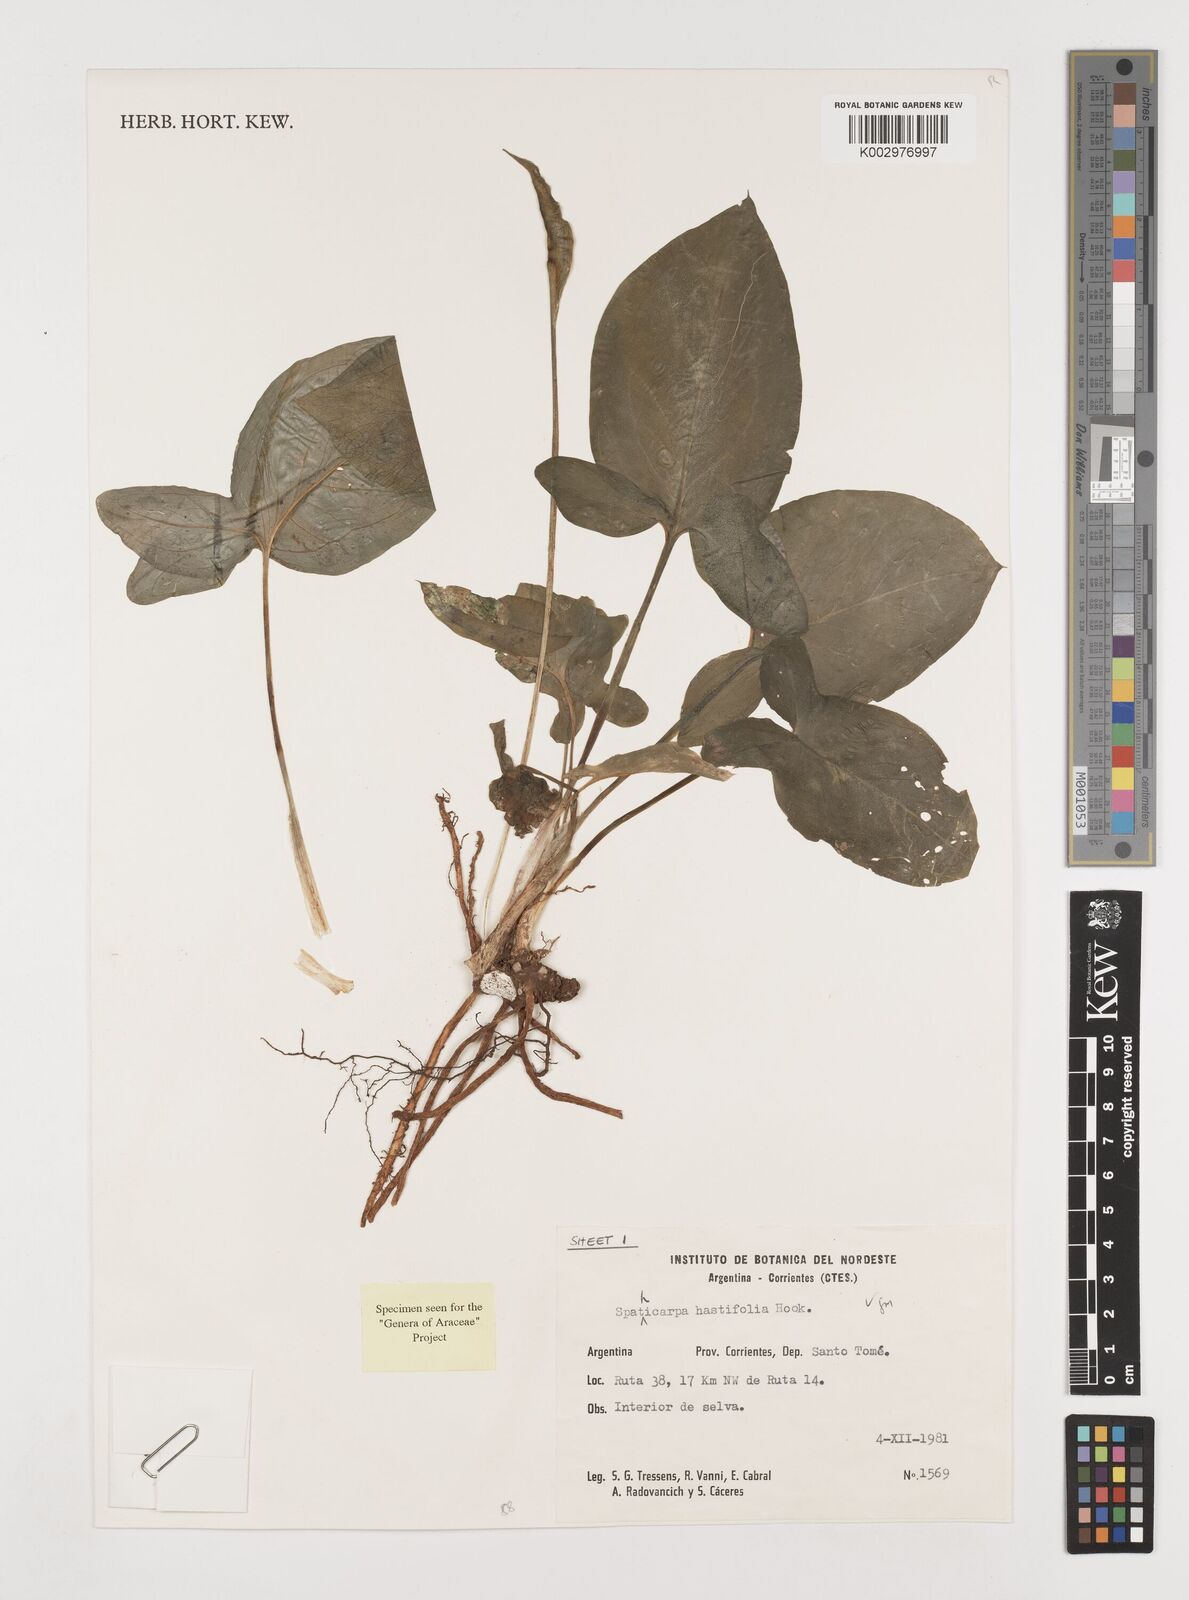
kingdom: Plantae
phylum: Tracheophyta
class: Liliopsida
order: Alismatales
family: Araceae
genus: Spathicarpa
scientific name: Spathicarpa hastifolia
